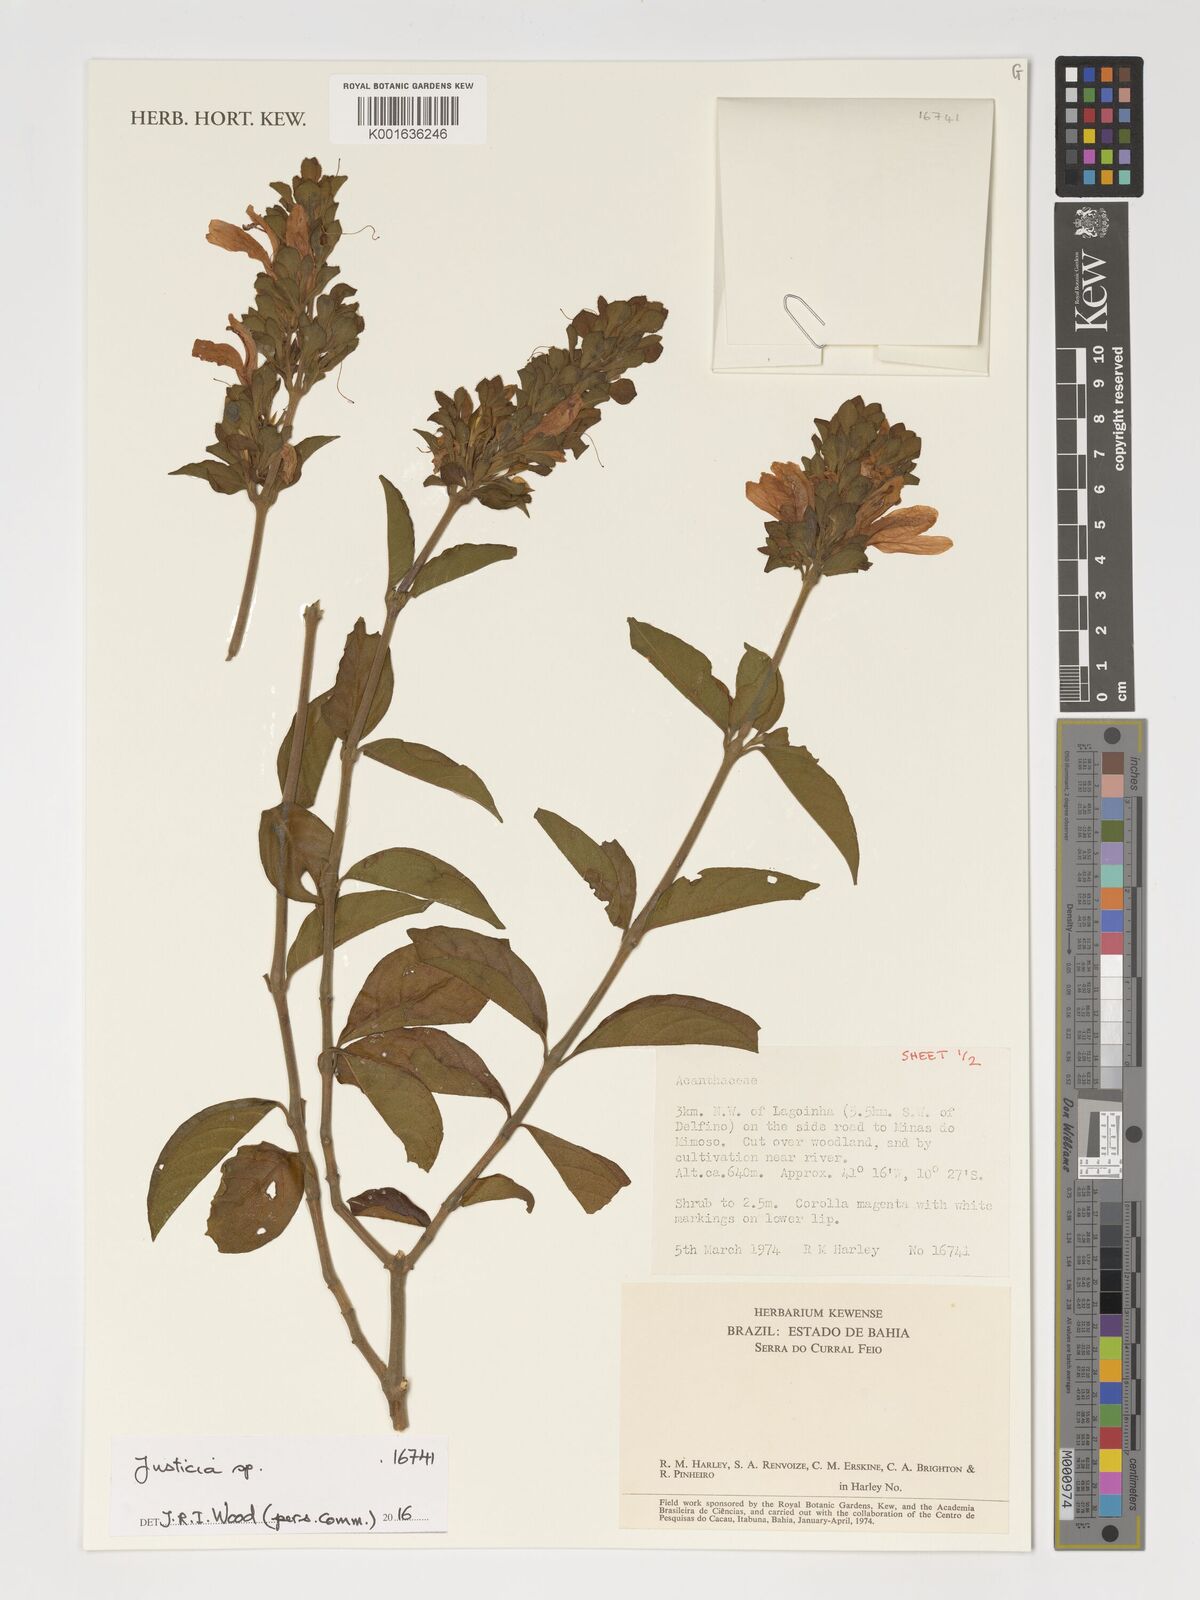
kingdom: Plantae
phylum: Tracheophyta
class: Magnoliopsida
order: Lamiales
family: Acanthaceae
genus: Justicia
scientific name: Justicia
